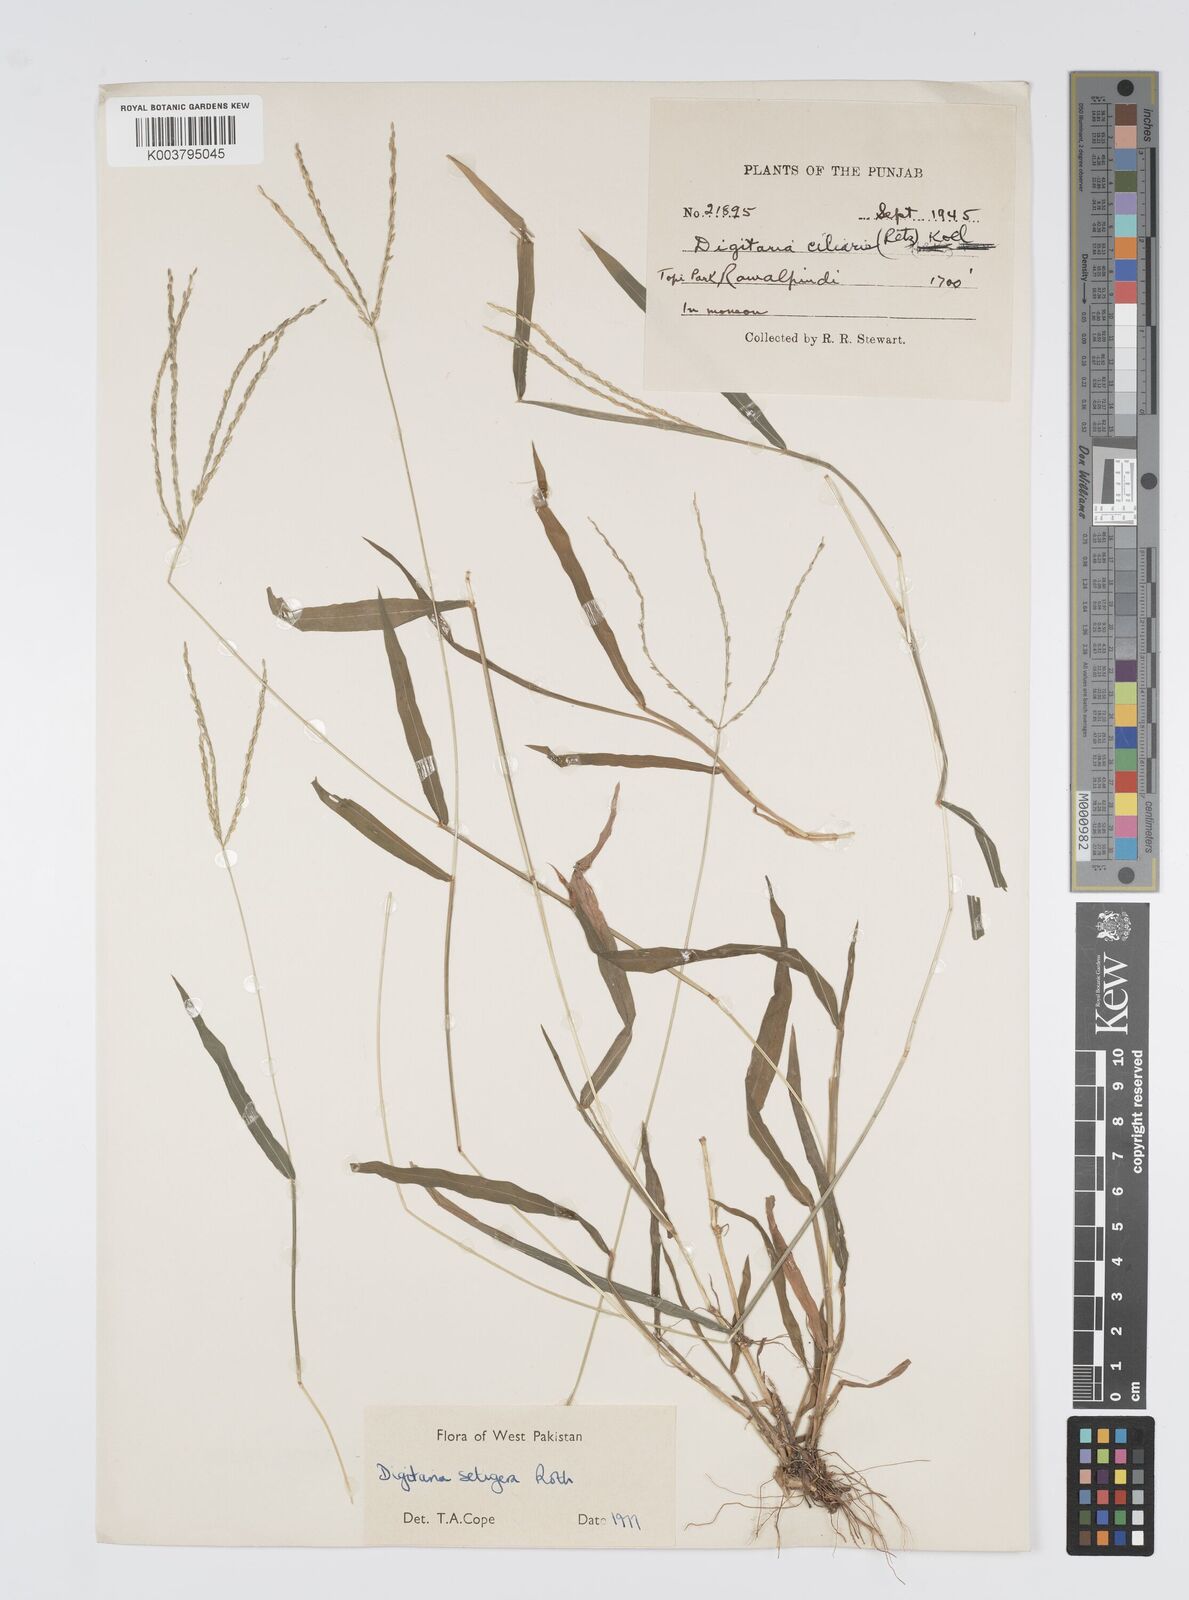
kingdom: Plantae
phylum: Tracheophyta
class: Liliopsida
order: Poales
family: Poaceae
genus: Digitaria
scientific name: Digitaria setigera
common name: East indian crabgrass
